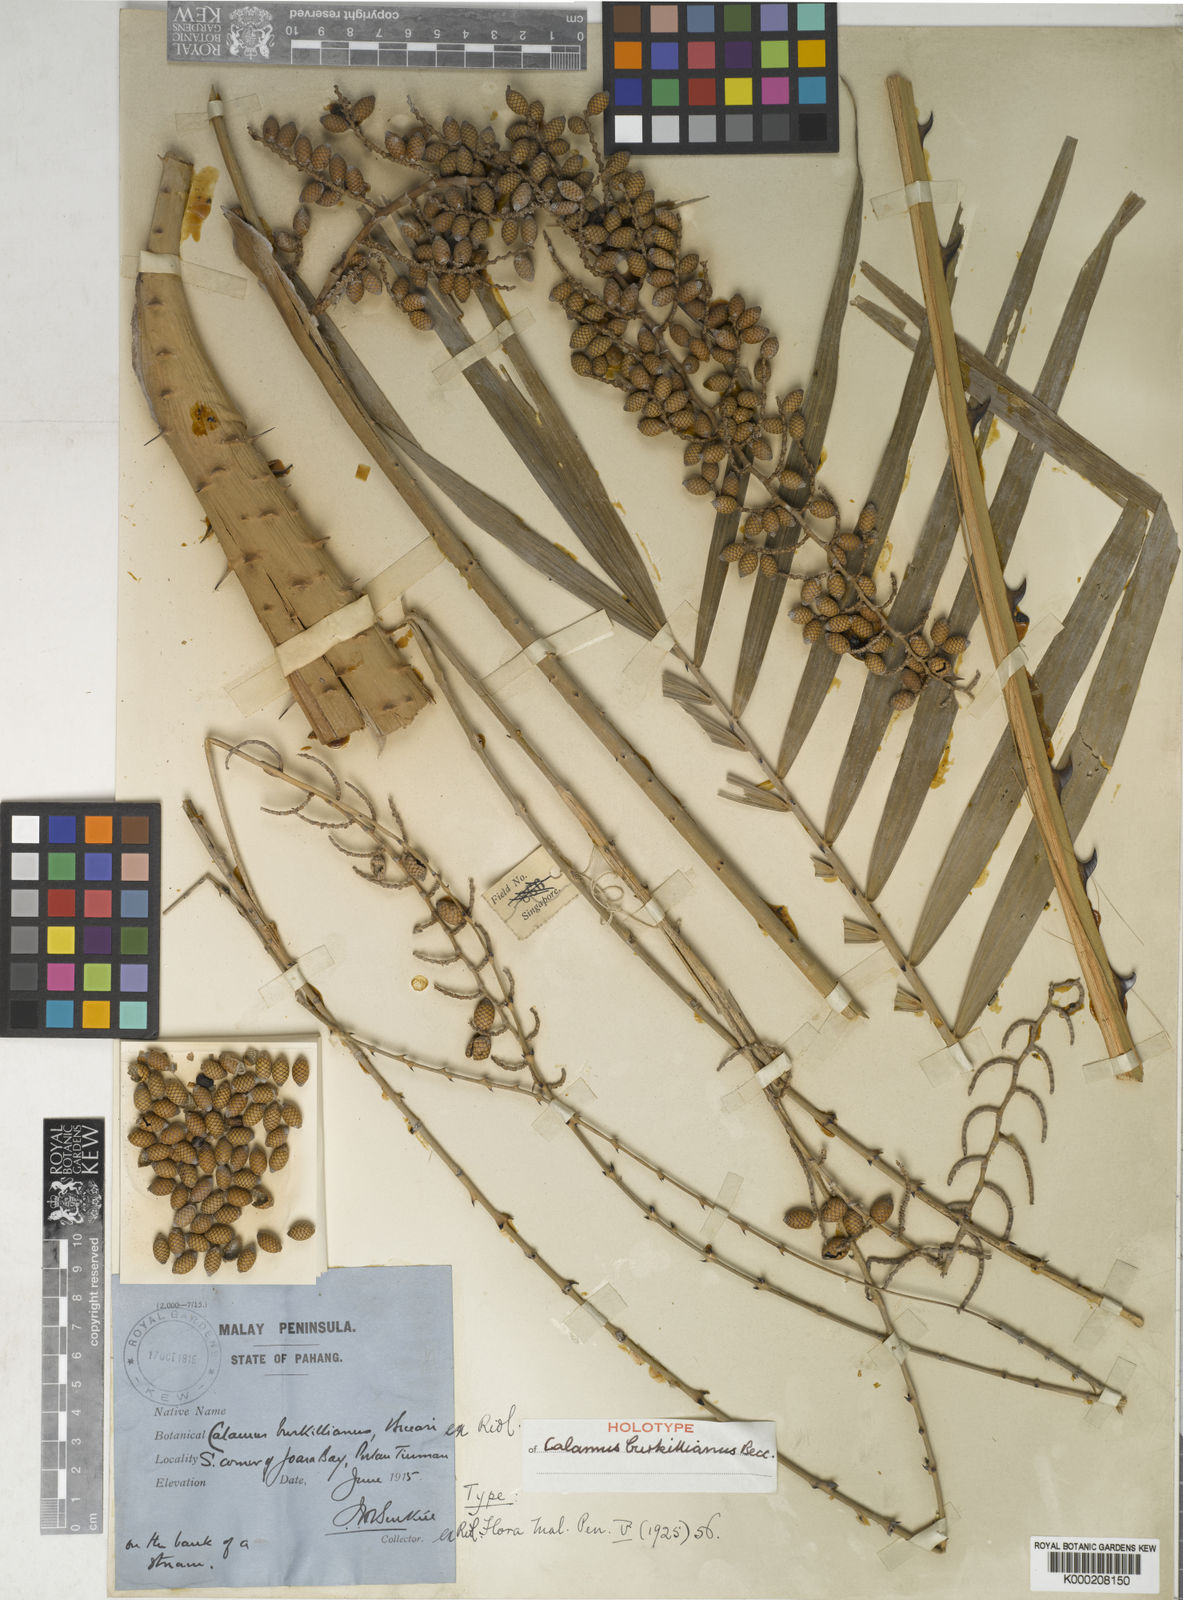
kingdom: Plantae
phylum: Tracheophyta
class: Liliopsida
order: Arecales
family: Arecaceae
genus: Calamus
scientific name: Calamus burkillianus
